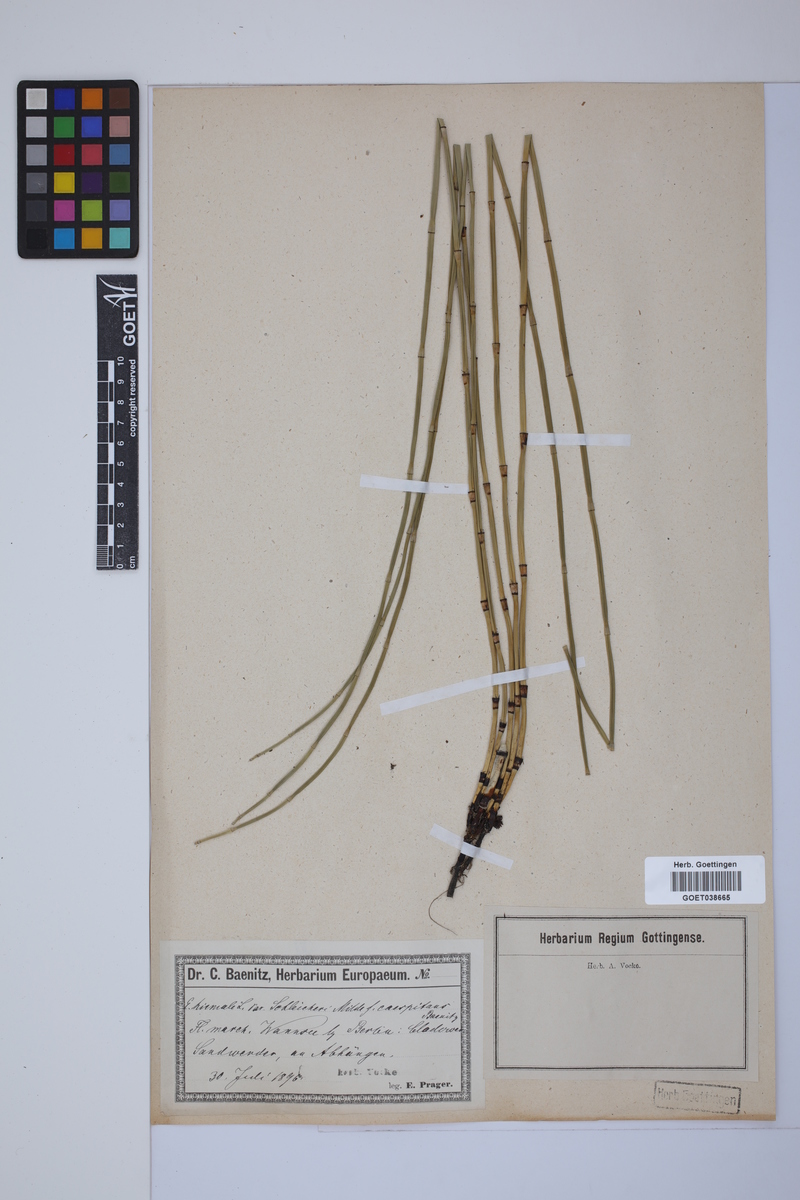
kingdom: Plantae
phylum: Tracheophyta
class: Polypodiopsida
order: Equisetales
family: Equisetaceae
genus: Equisetum
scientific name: Equisetum hyemale
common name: Rough horsetail
